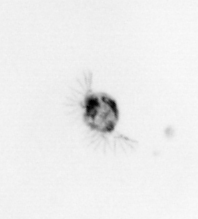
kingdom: Animalia
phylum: Arthropoda
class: Copepoda
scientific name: Copepoda
